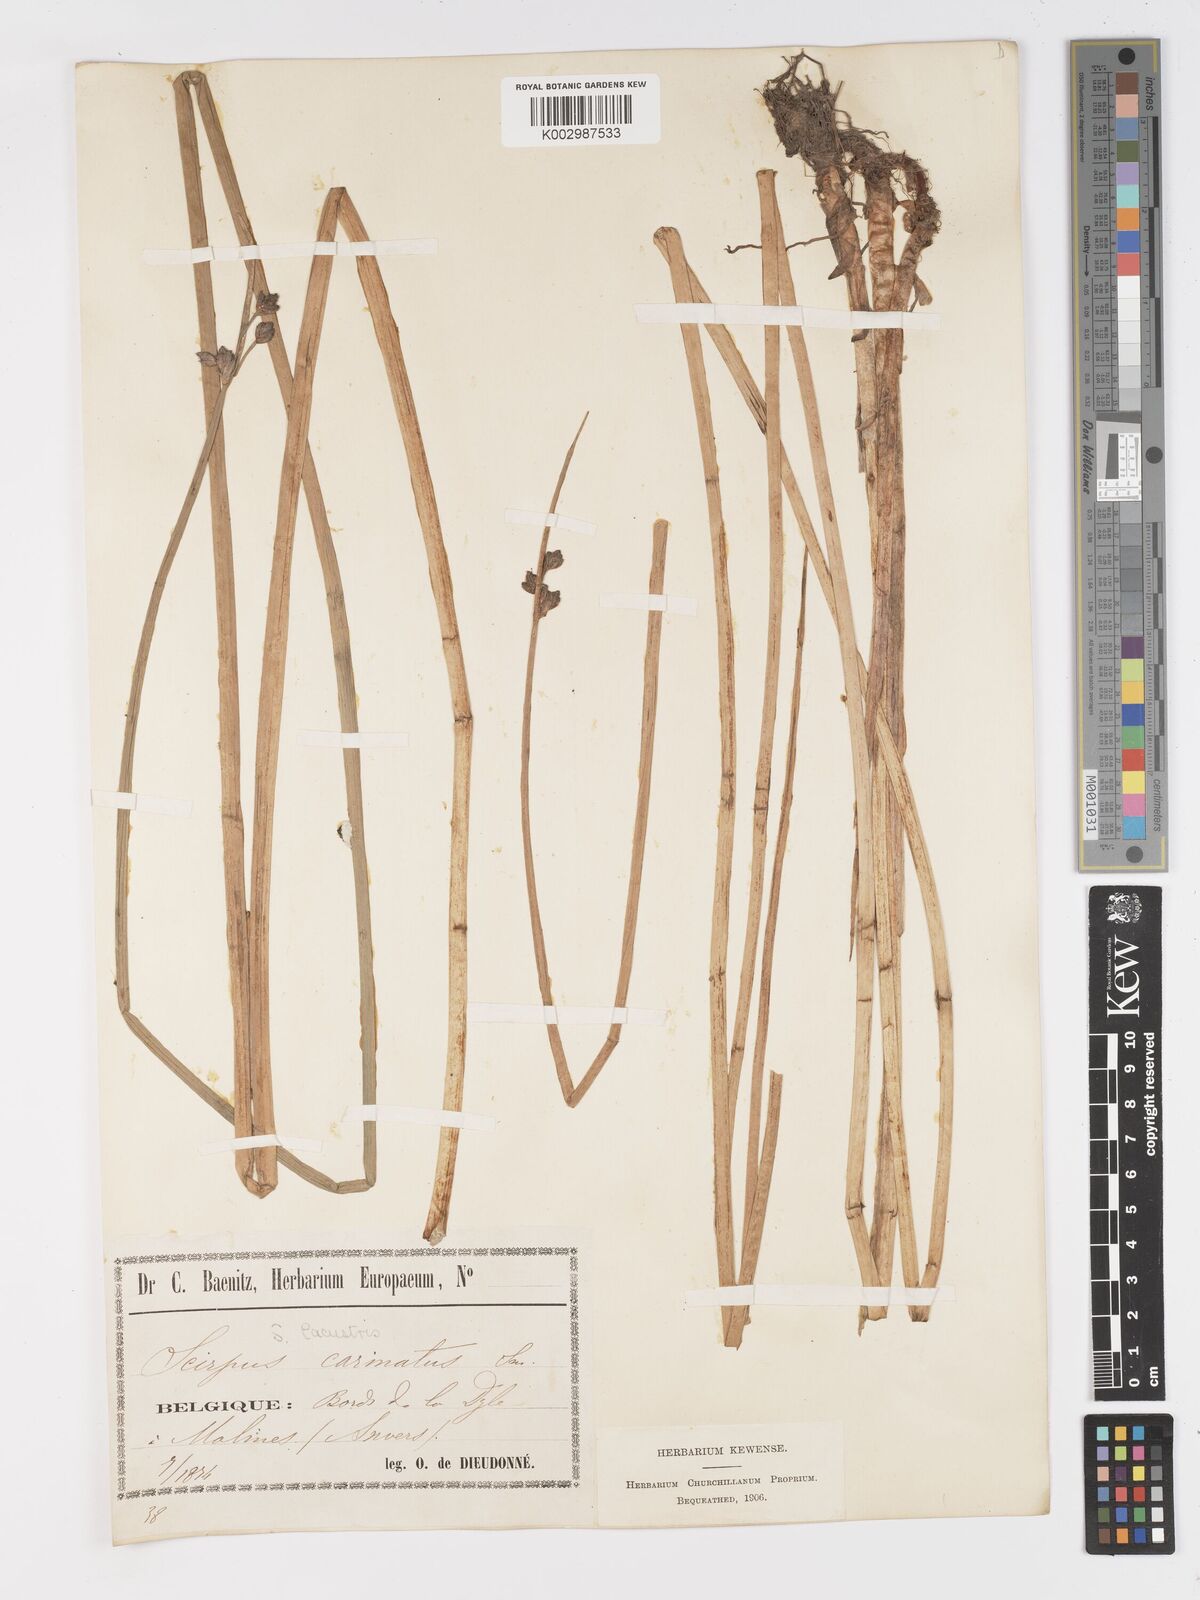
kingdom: Plantae
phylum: Tracheophyta
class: Liliopsida
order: Poales
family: Cyperaceae
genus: Schoenoplectus
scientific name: Schoenoplectus lacustris
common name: Common club-rush
